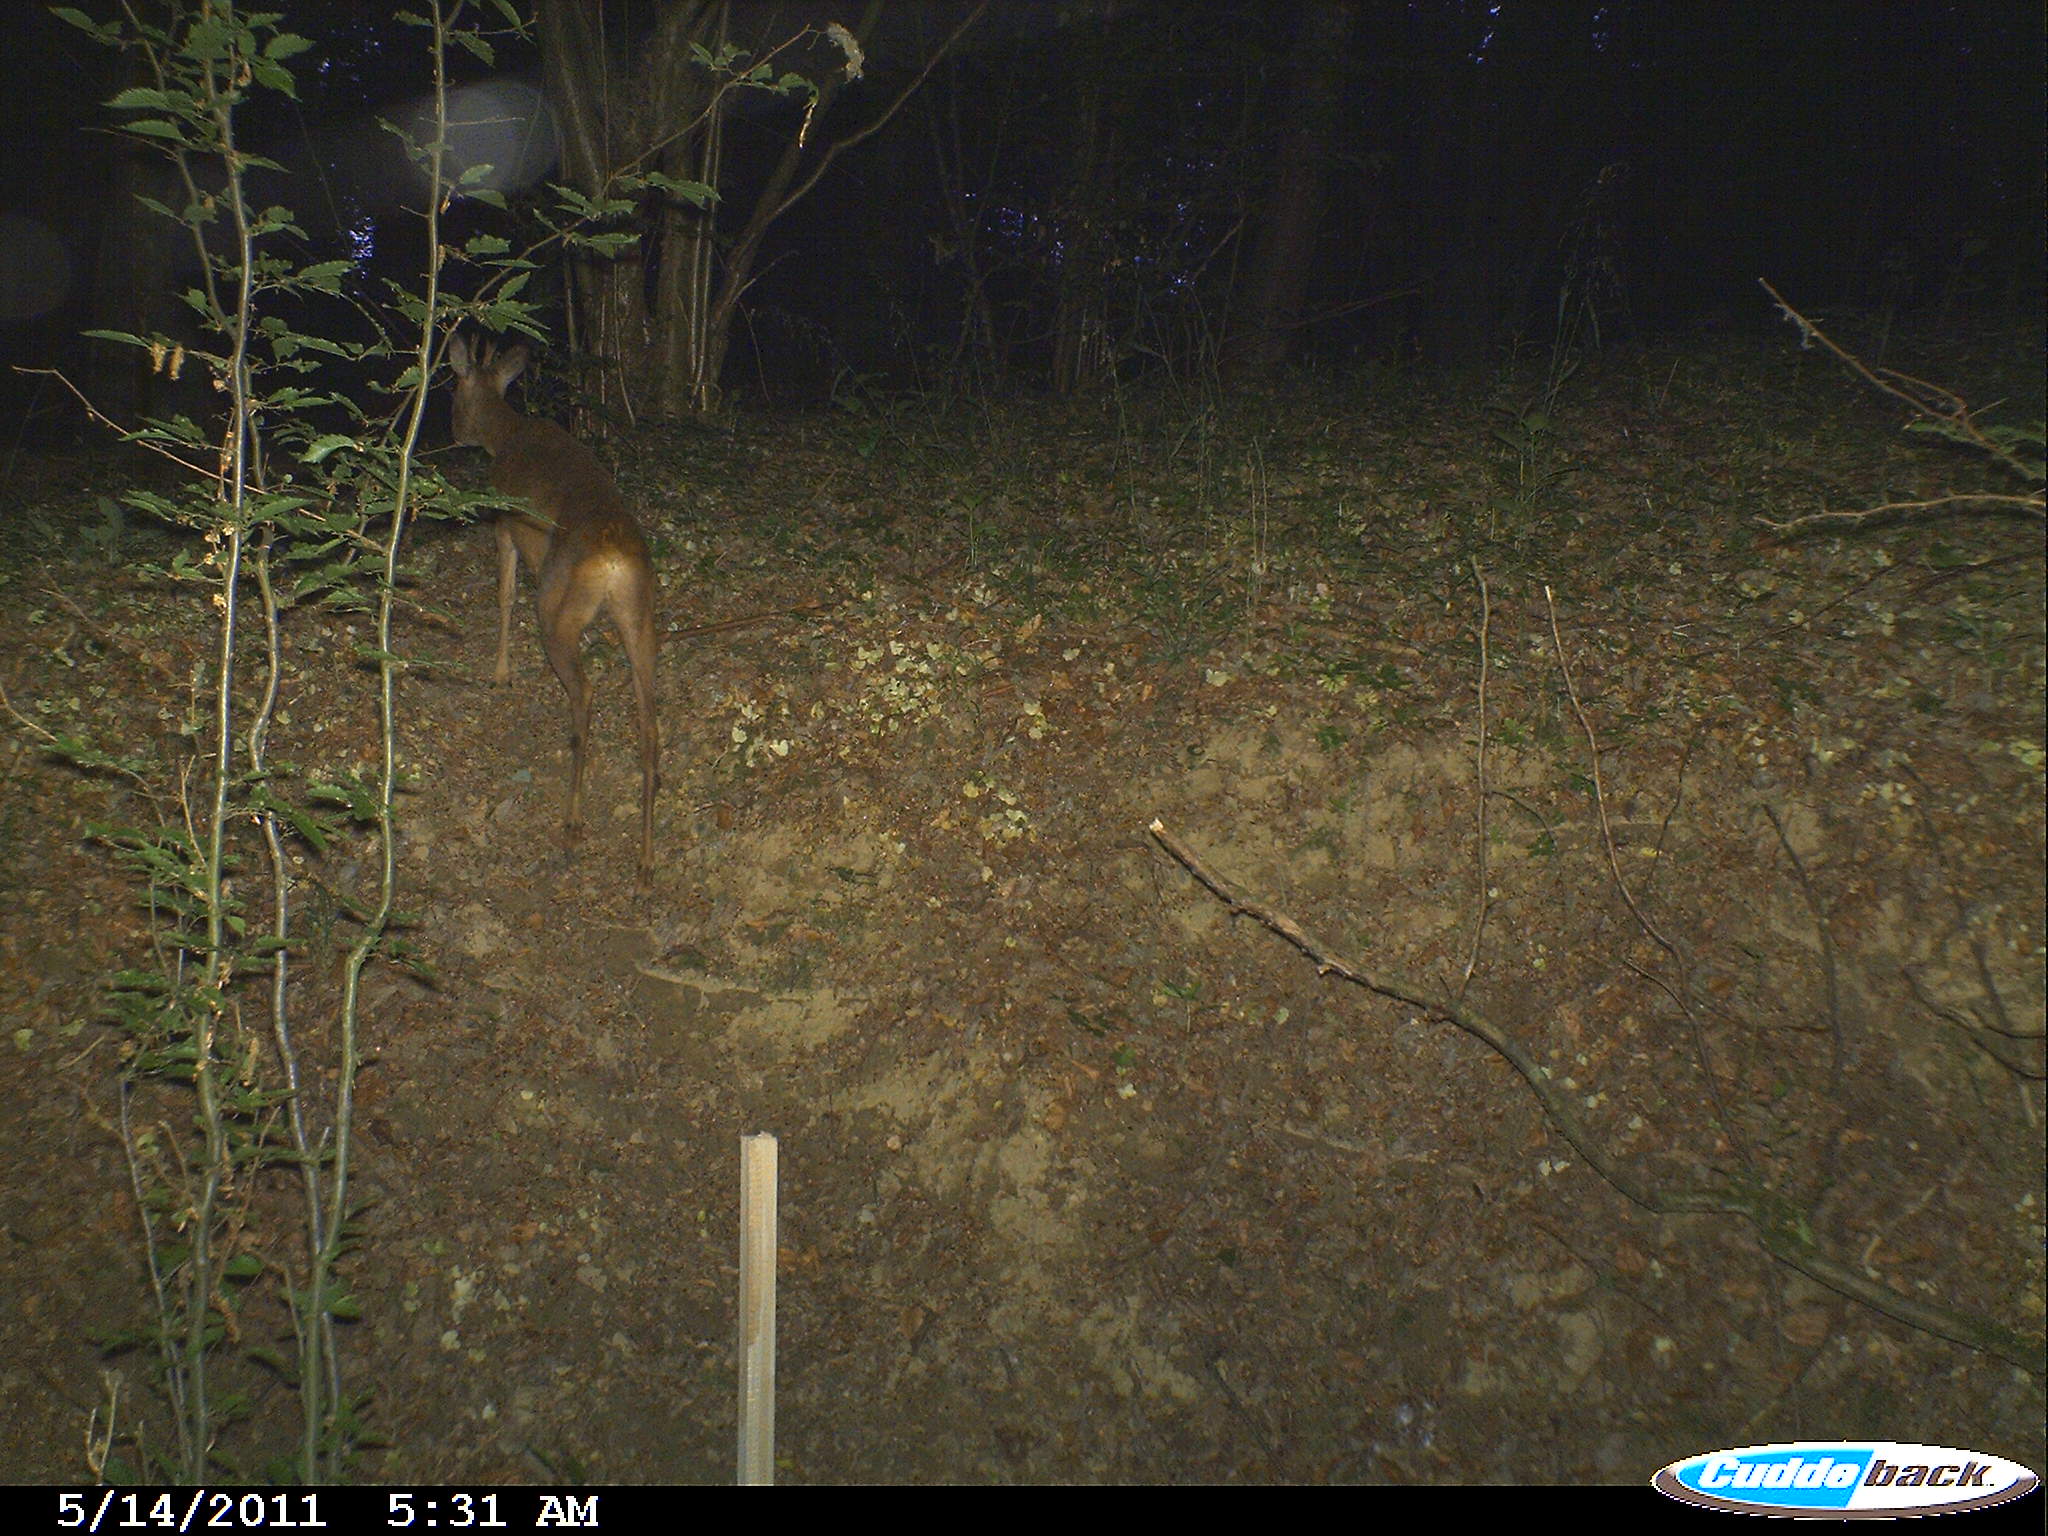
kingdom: Animalia
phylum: Chordata
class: Mammalia
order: Artiodactyla
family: Cervidae
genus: Capreolus
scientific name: Capreolus capreolus
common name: Western roe deer
